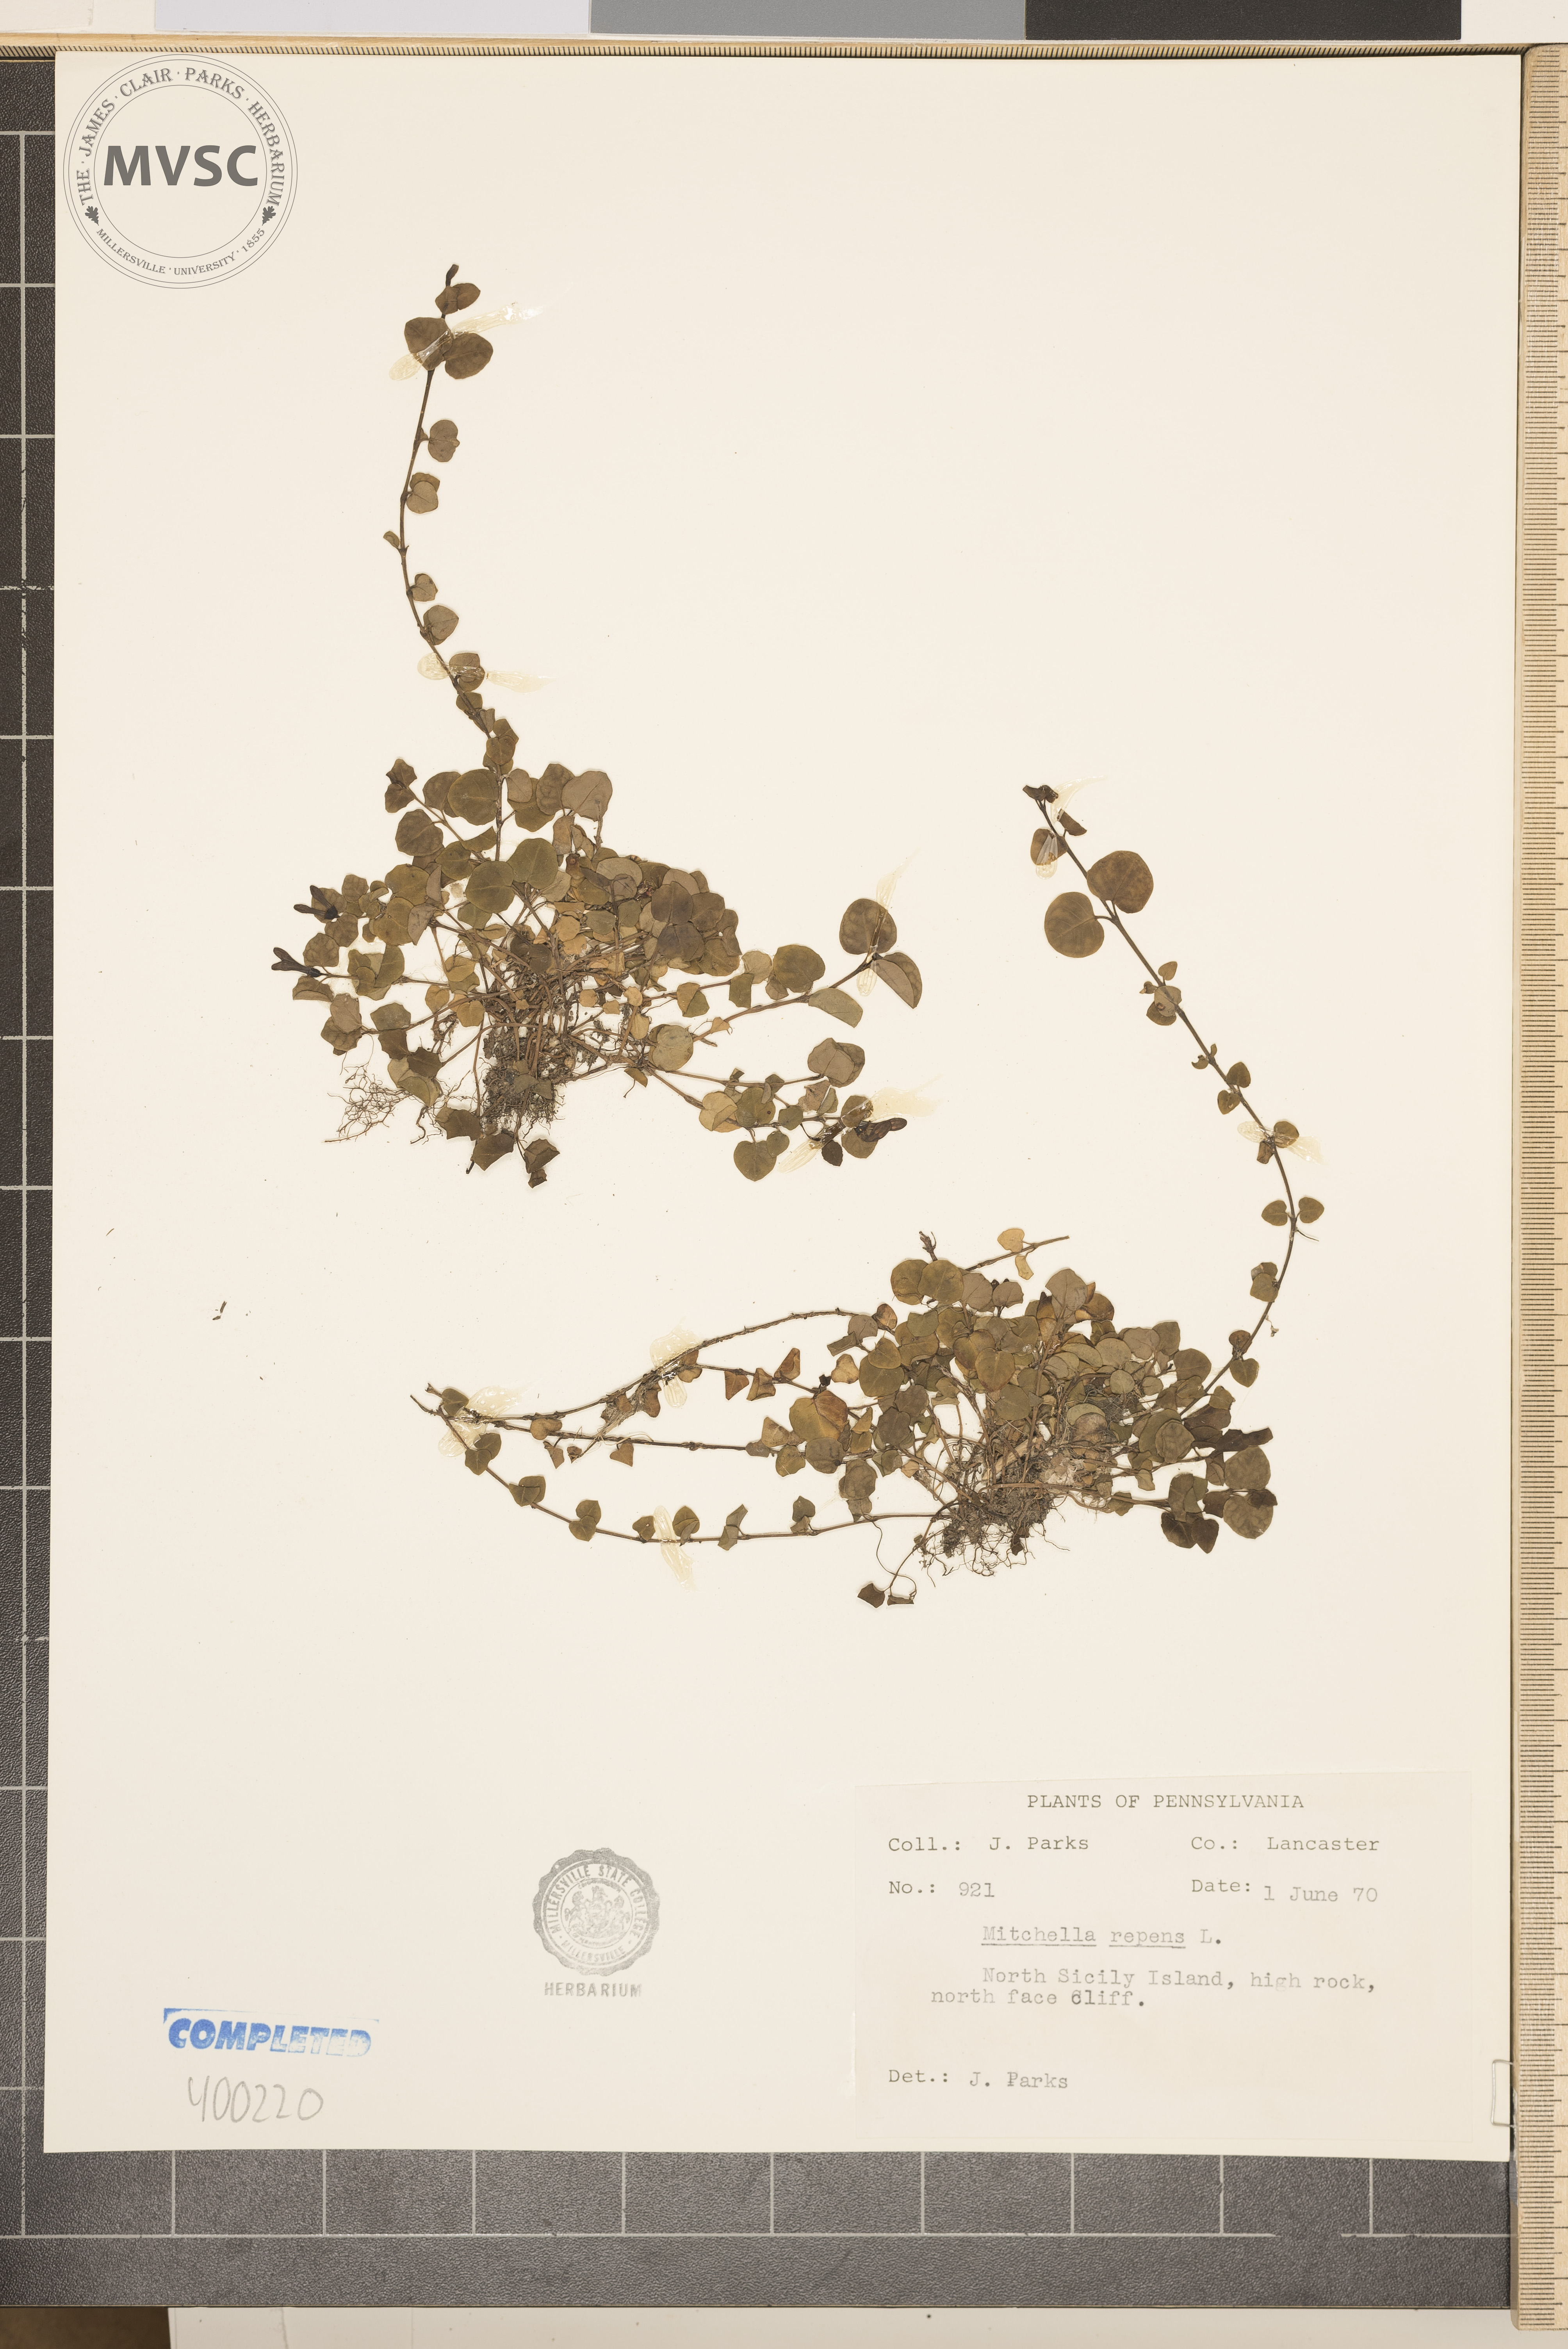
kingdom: Plantae
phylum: Tracheophyta
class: Magnoliopsida
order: Gentianales
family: Rubiaceae
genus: Mitchella
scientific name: Mitchella repens
